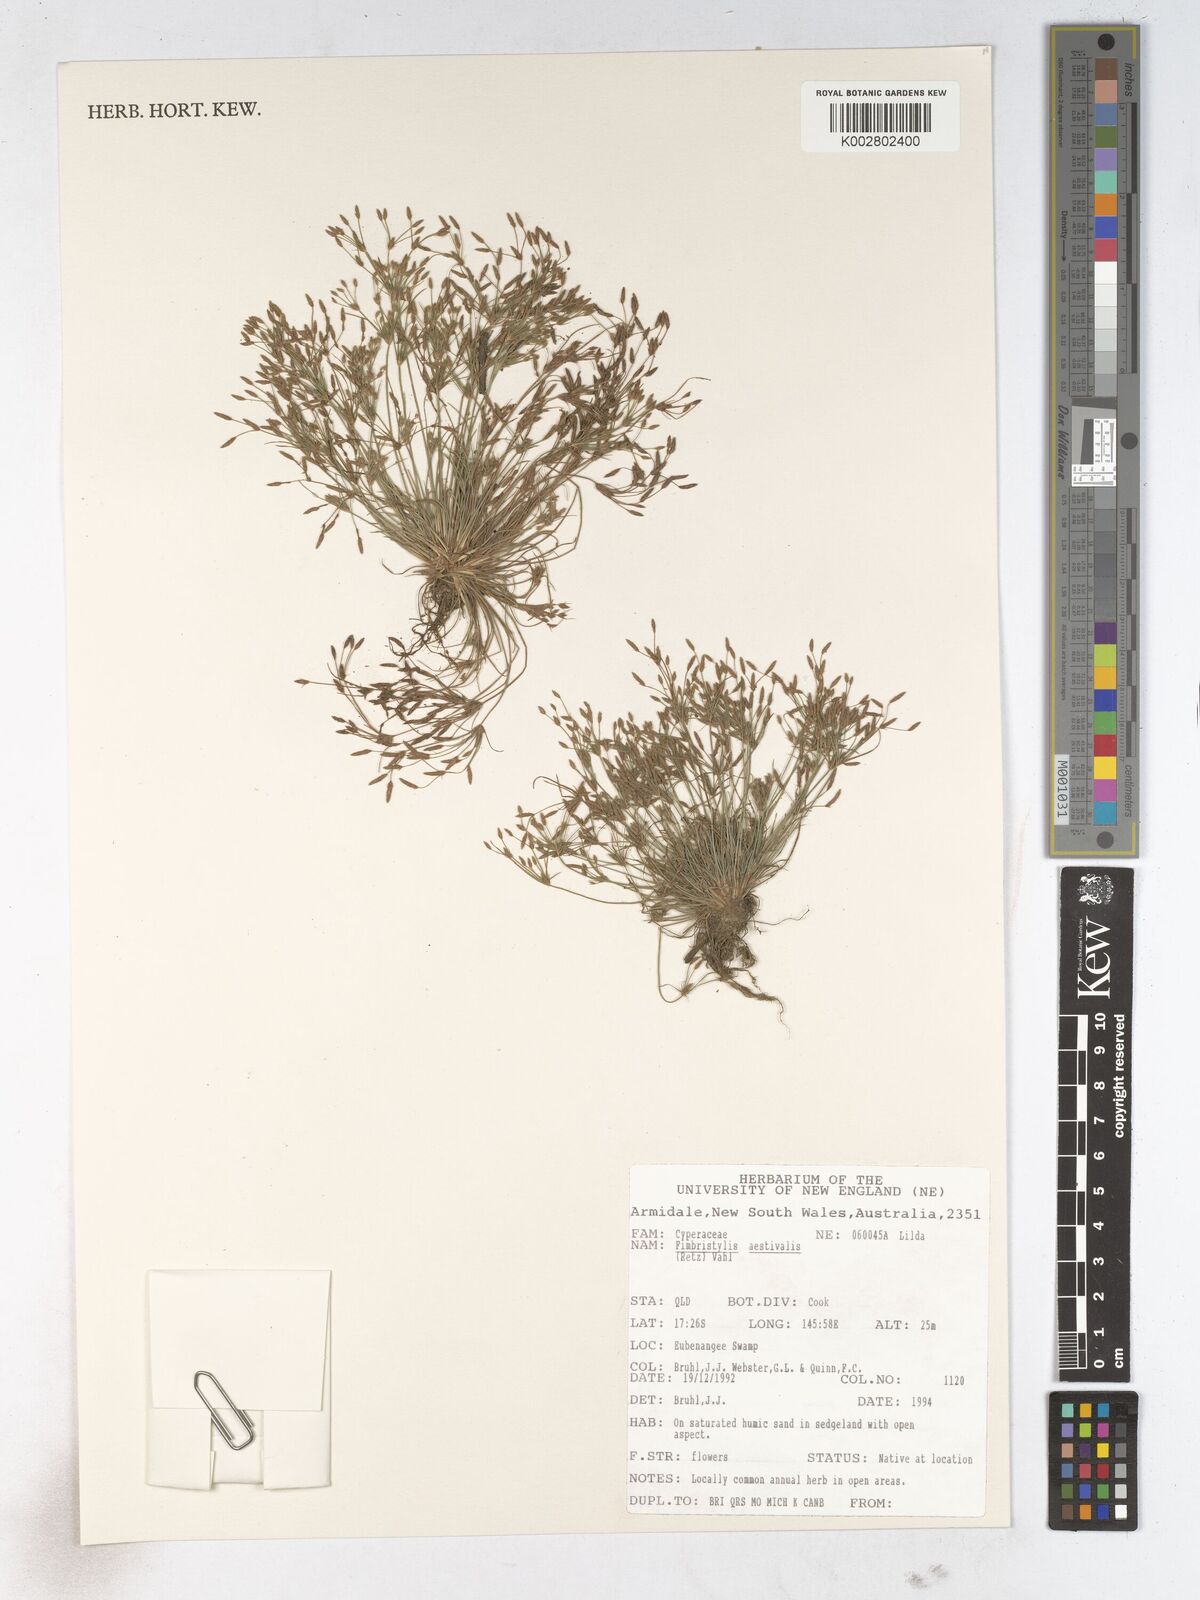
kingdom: Plantae
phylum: Tracheophyta
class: Liliopsida
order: Poales
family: Cyperaceae
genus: Fimbristylis
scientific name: Fimbristylis aestivalis
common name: Summer fimbry
